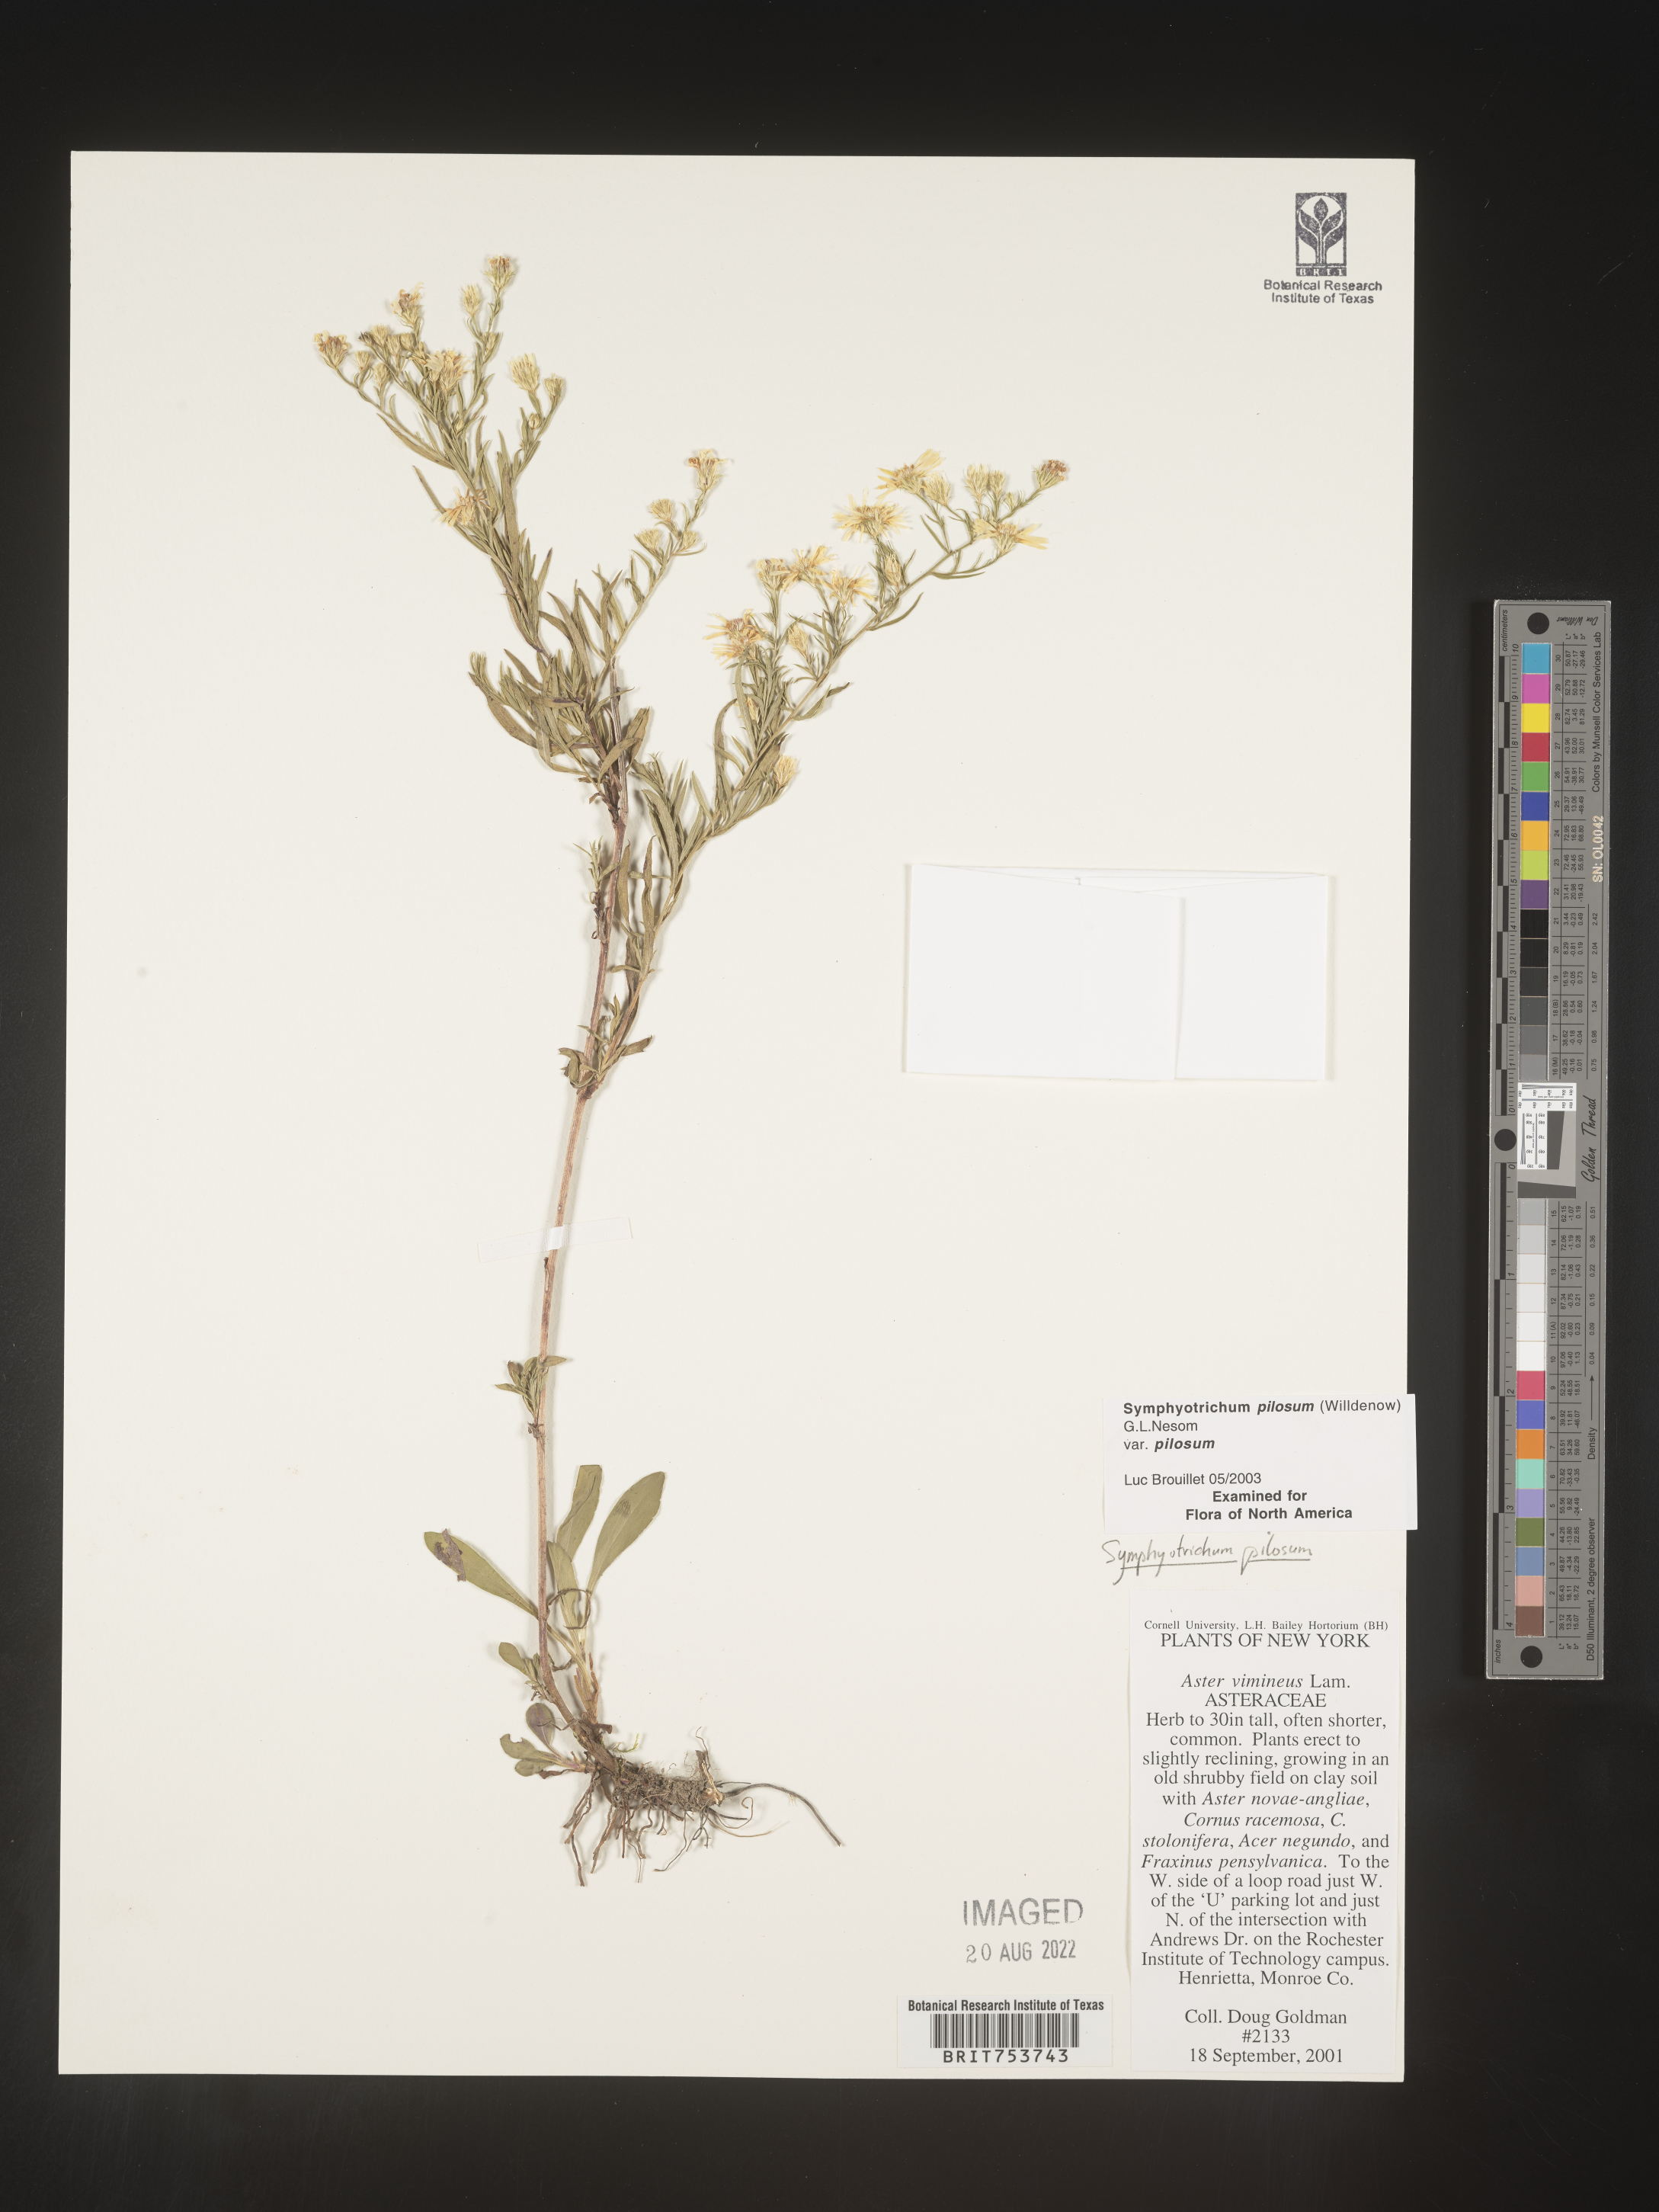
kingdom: Plantae
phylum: Tracheophyta
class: Magnoliopsida
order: Asterales
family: Asteraceae
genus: Symphyotrichum
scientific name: Symphyotrichum pilosum
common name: Awl aster
